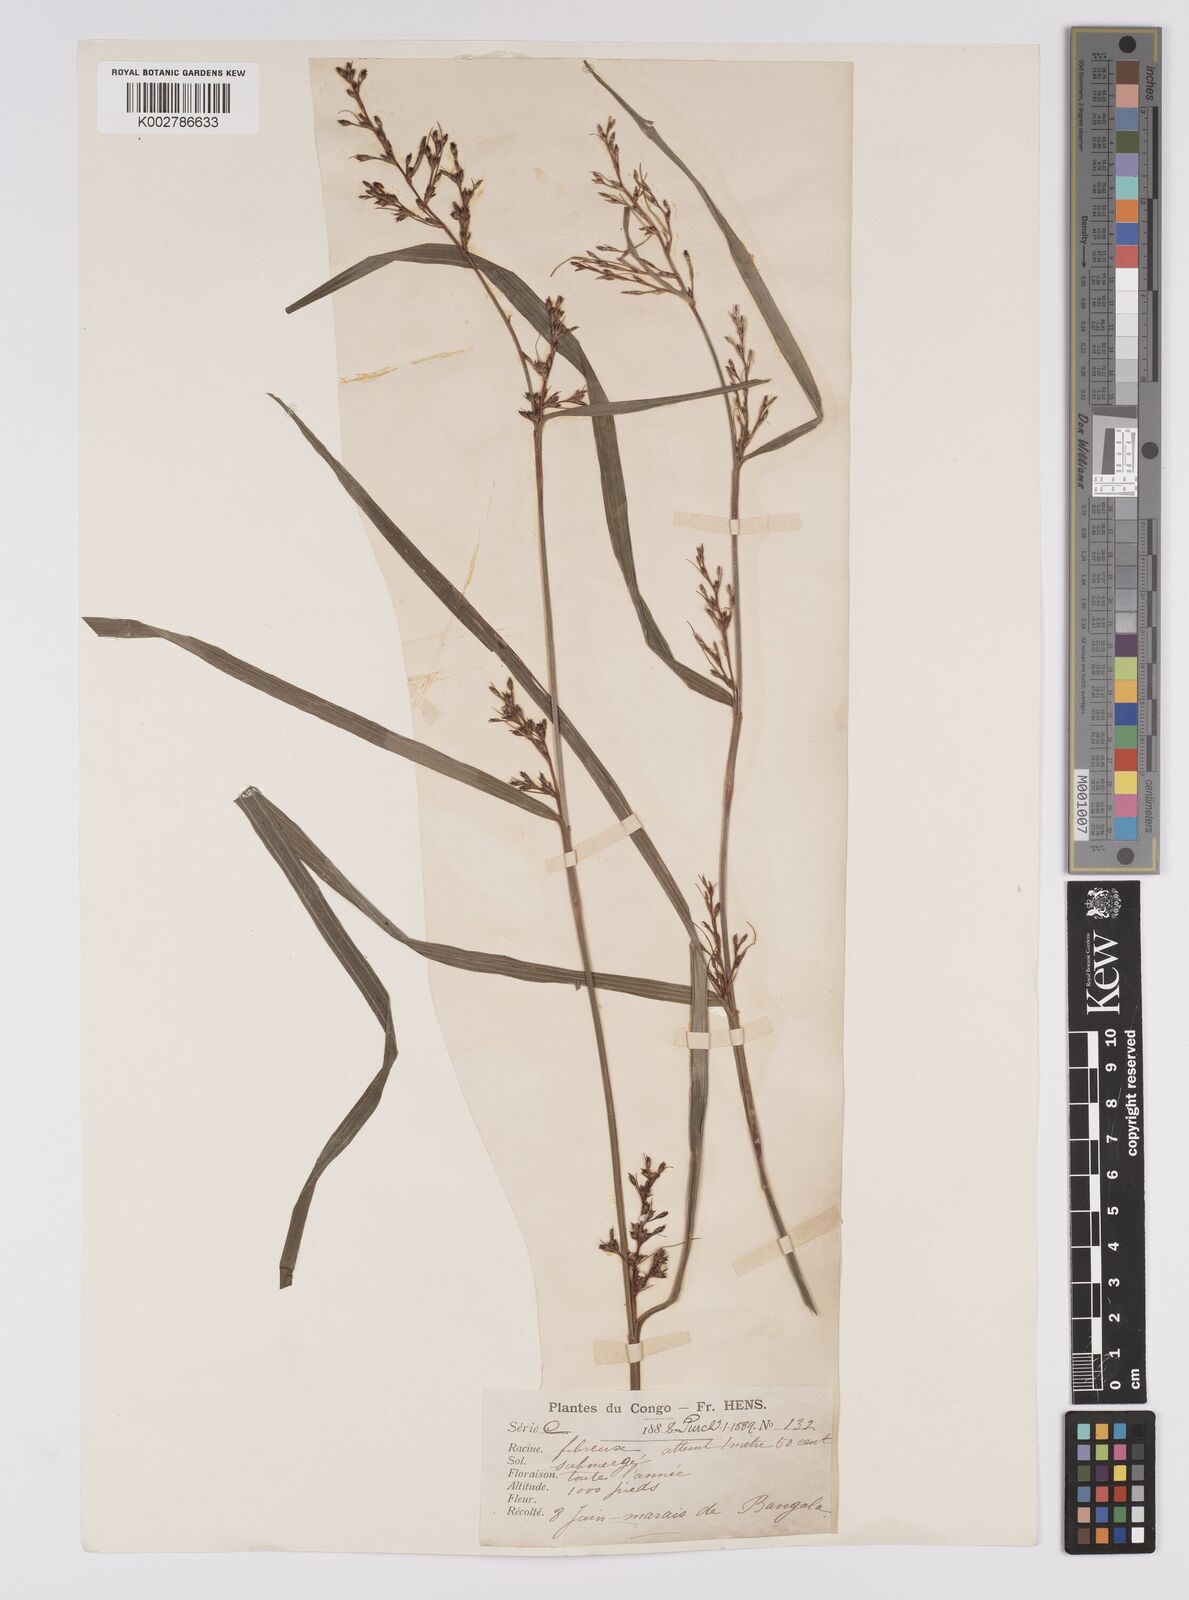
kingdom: Plantae
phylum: Tracheophyta
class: Liliopsida
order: Poales
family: Cyperaceae
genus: Scleria
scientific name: Scleria naumanniana
